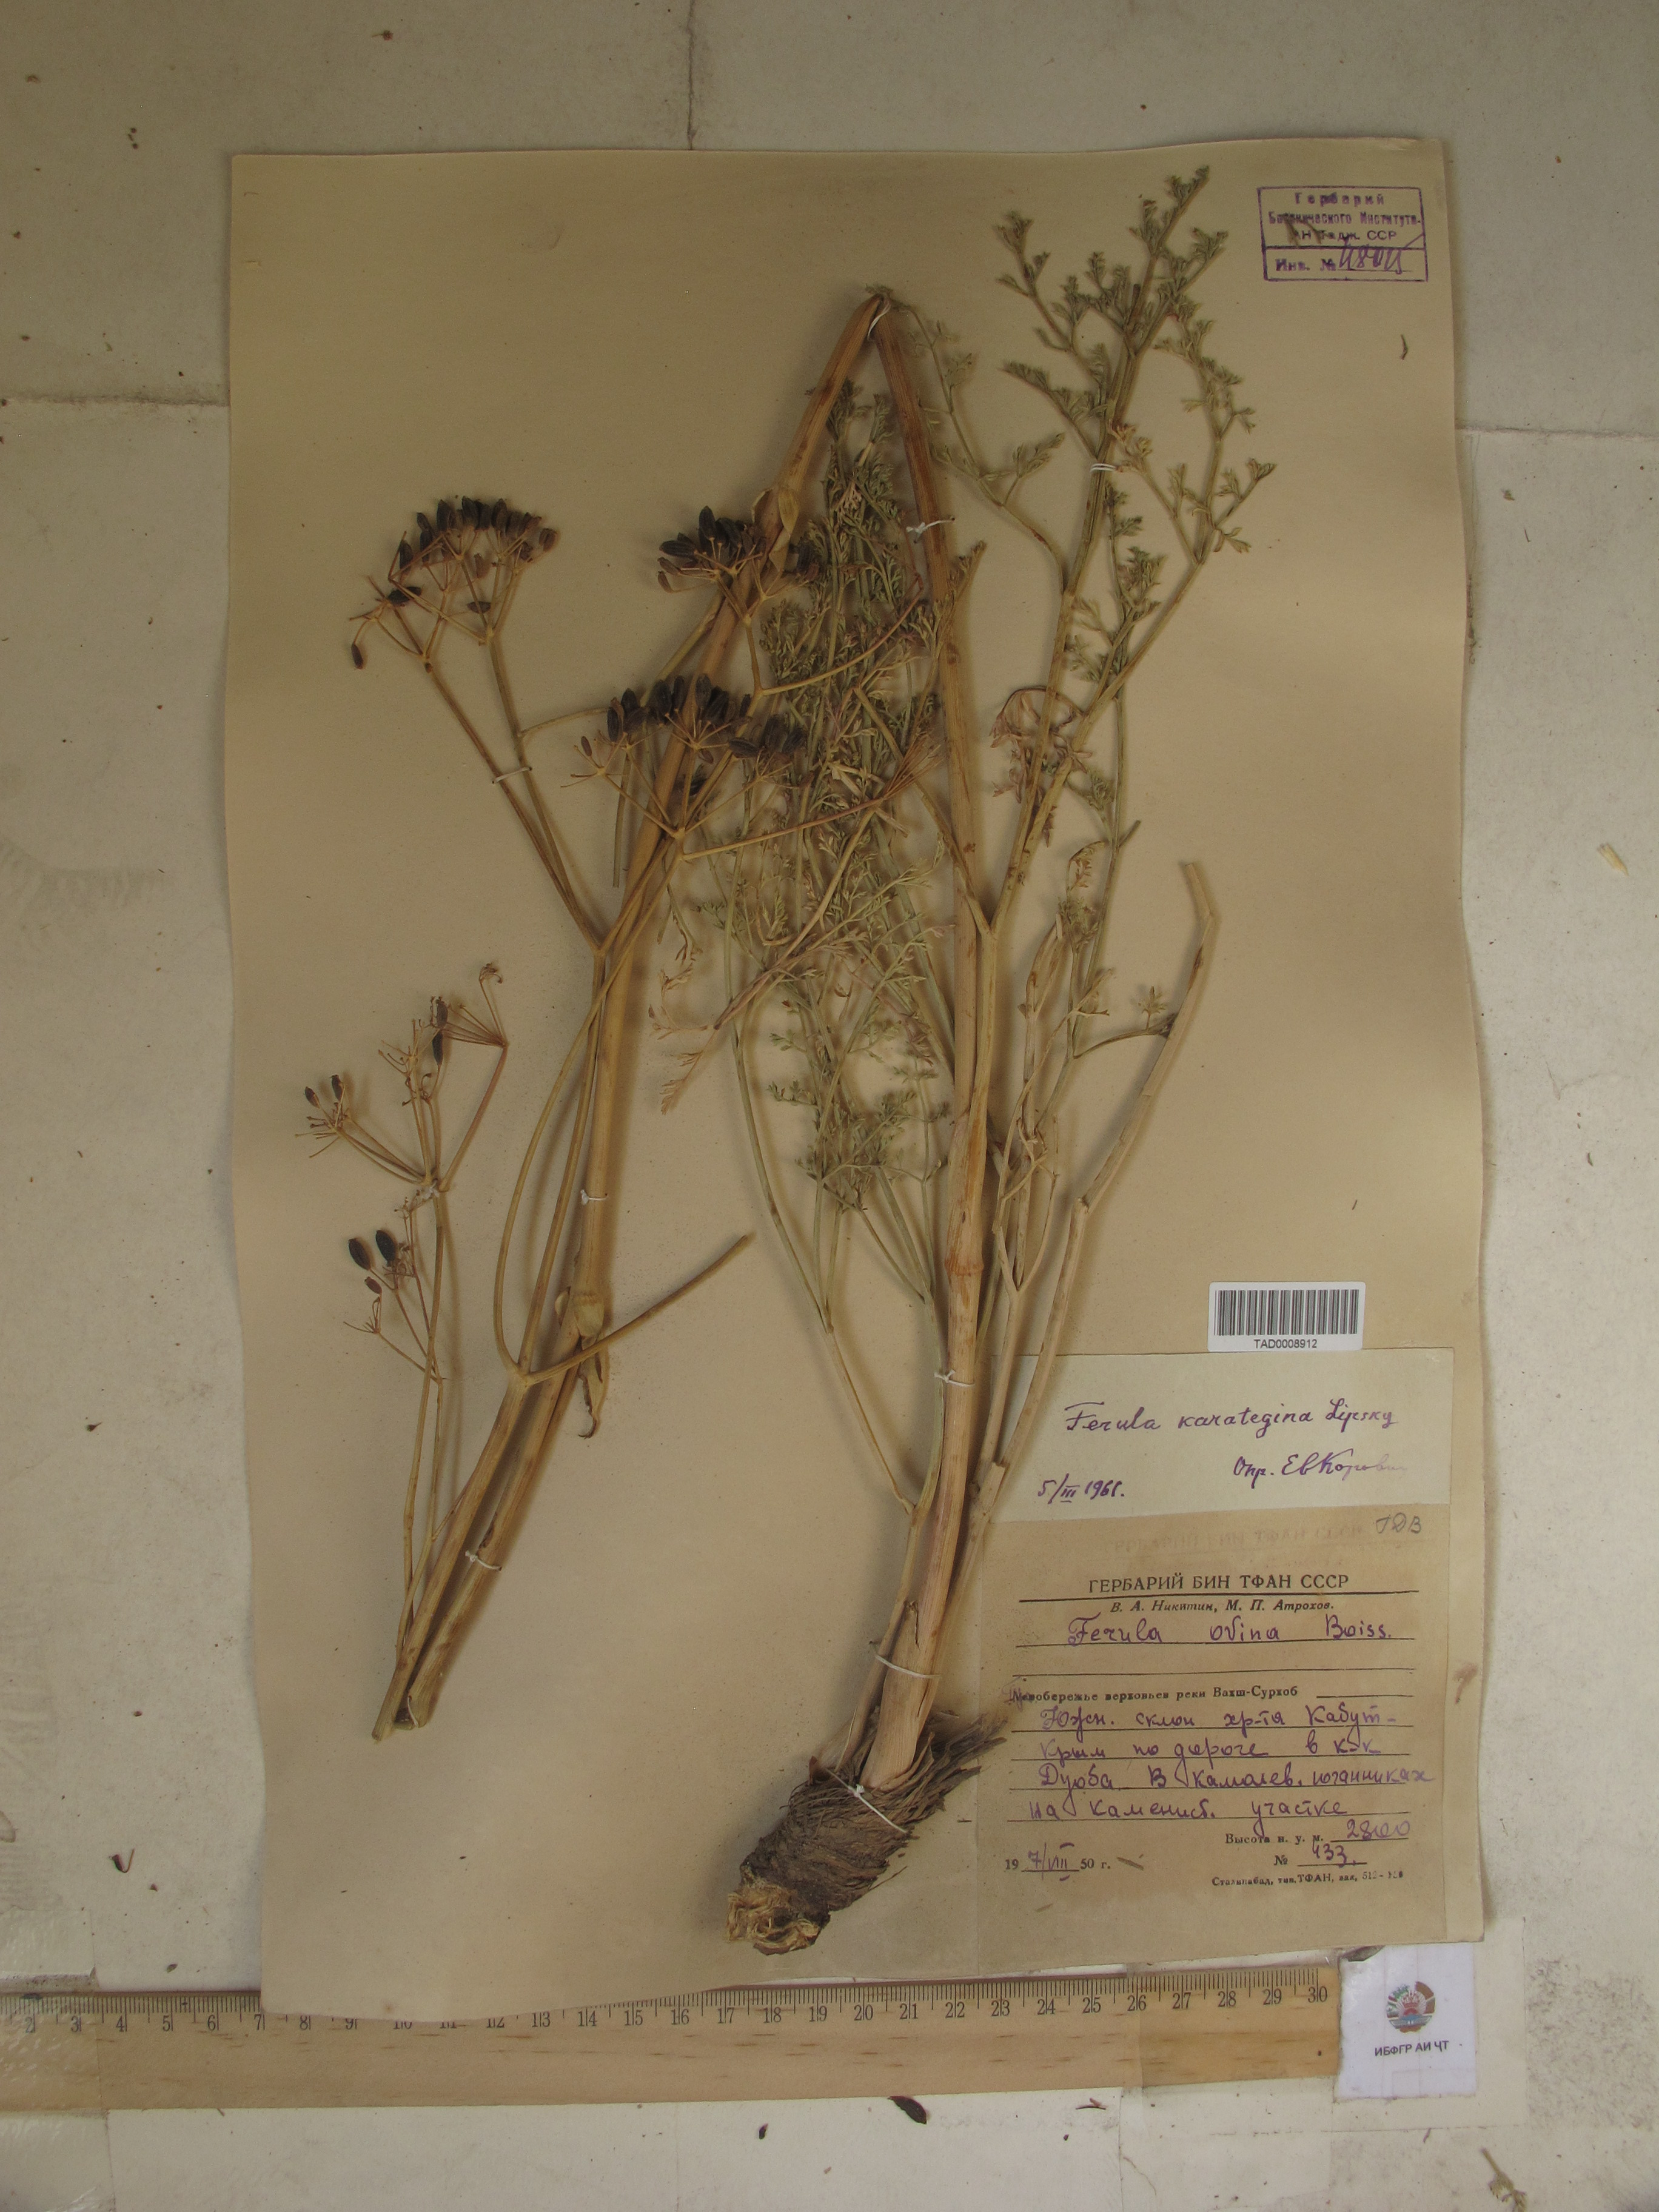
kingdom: Plantae
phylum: Tracheophyta
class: Magnoliopsida
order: Apiales
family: Apiaceae
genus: Ferula
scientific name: Ferula karategina
